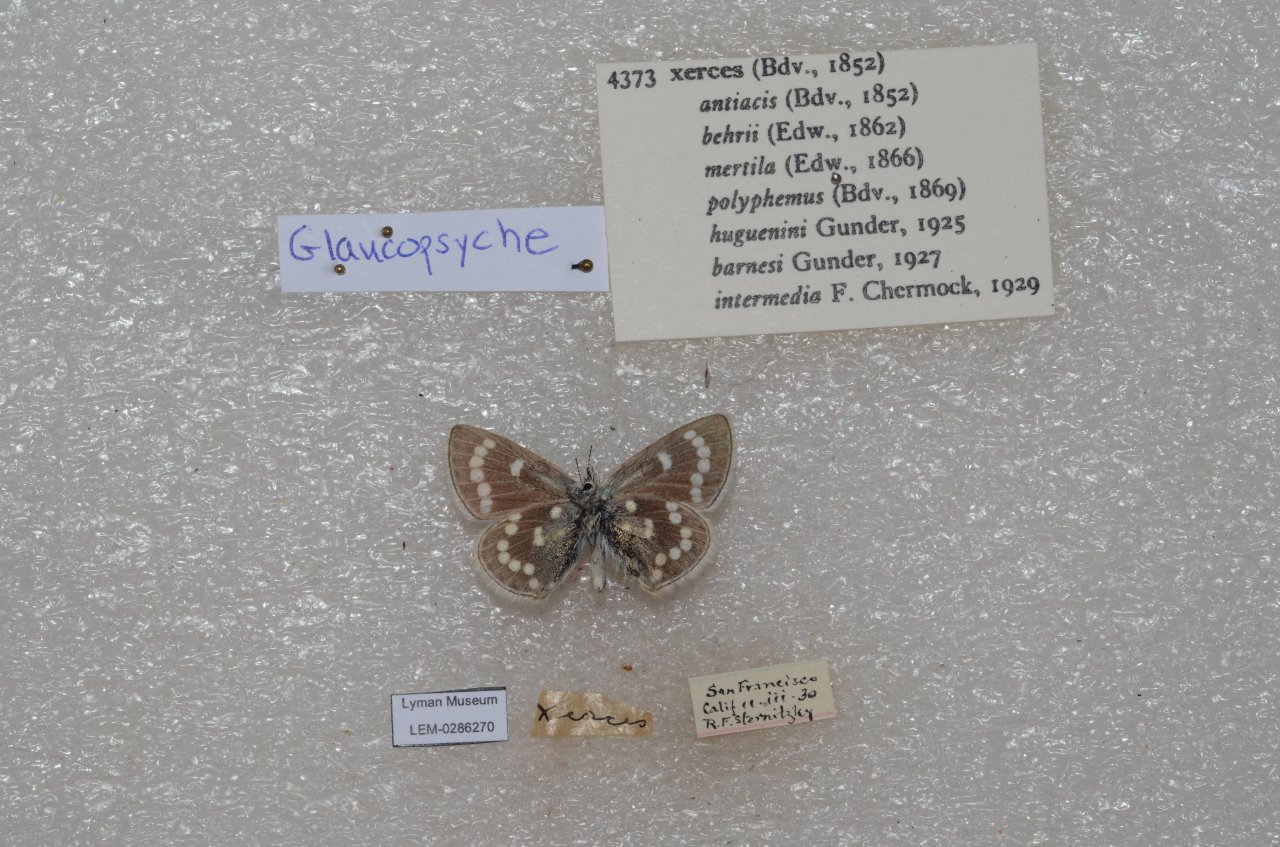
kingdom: Animalia
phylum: Arthropoda
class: Insecta
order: Lepidoptera
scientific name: Lepidoptera
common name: Butterflies
